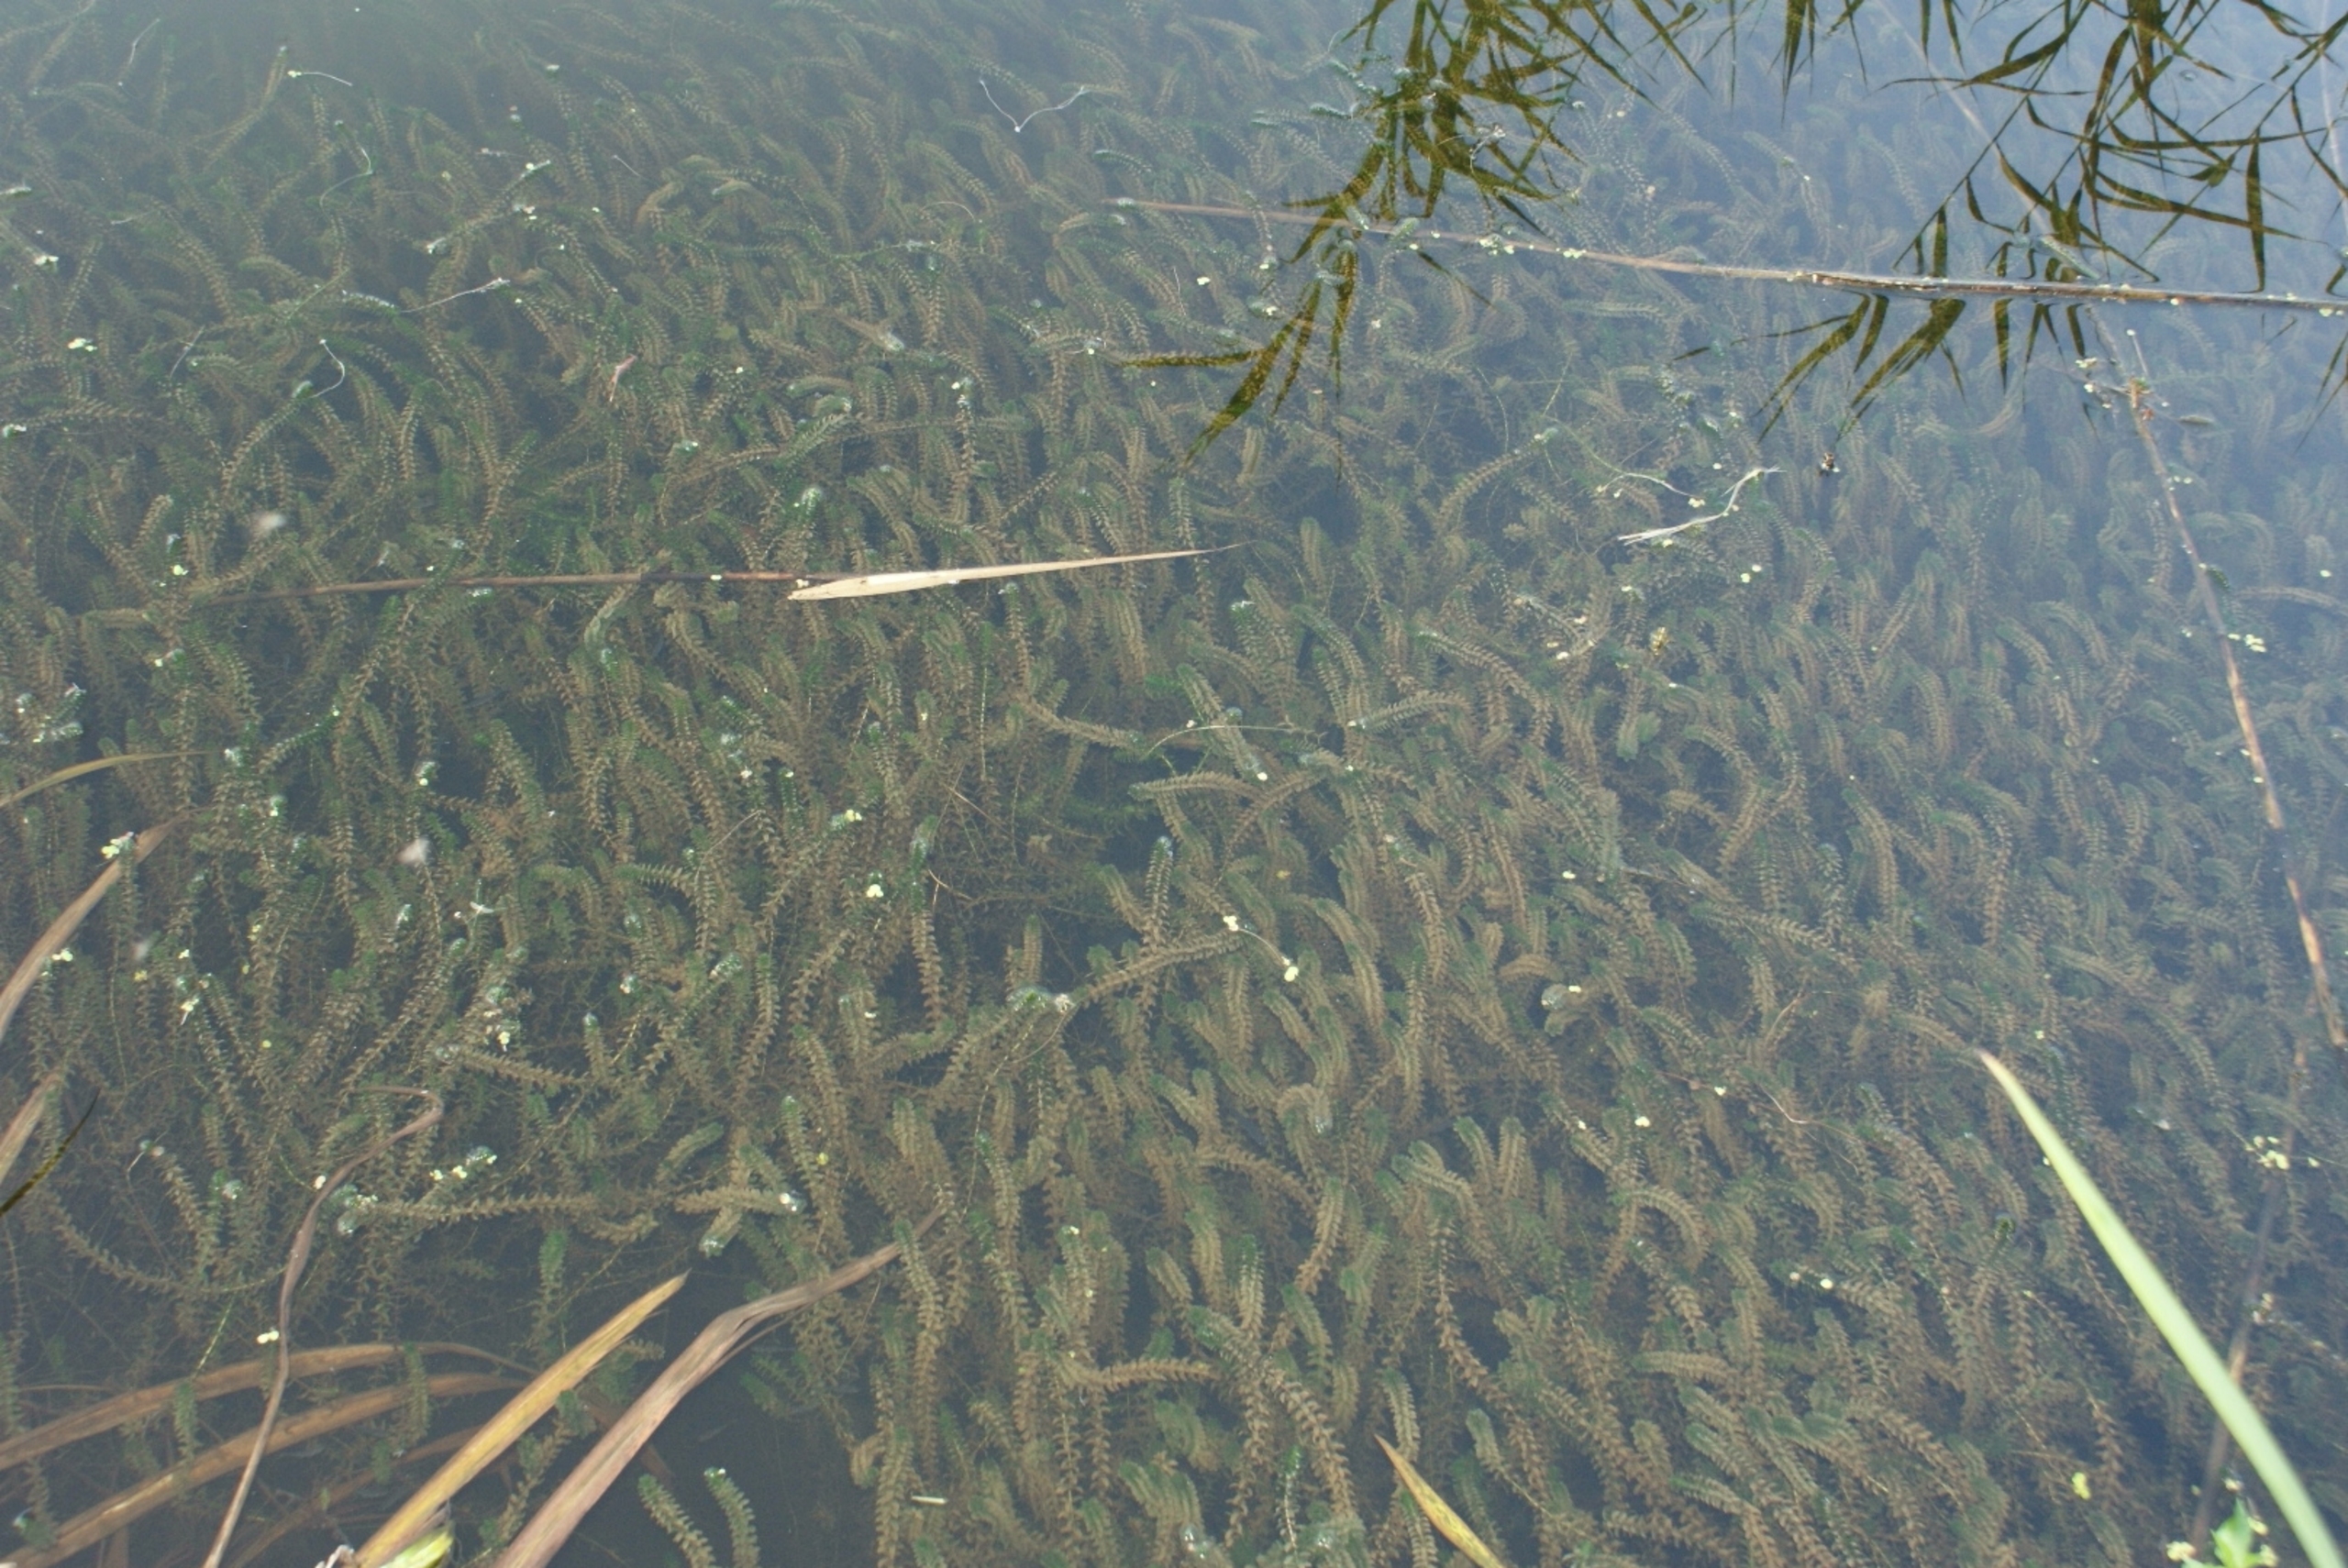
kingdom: Plantae
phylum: Tracheophyta
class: Liliopsida
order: Alismatales
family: Hydrocharitaceae
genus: Elodea
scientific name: Elodea canadensis
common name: Vandpest
